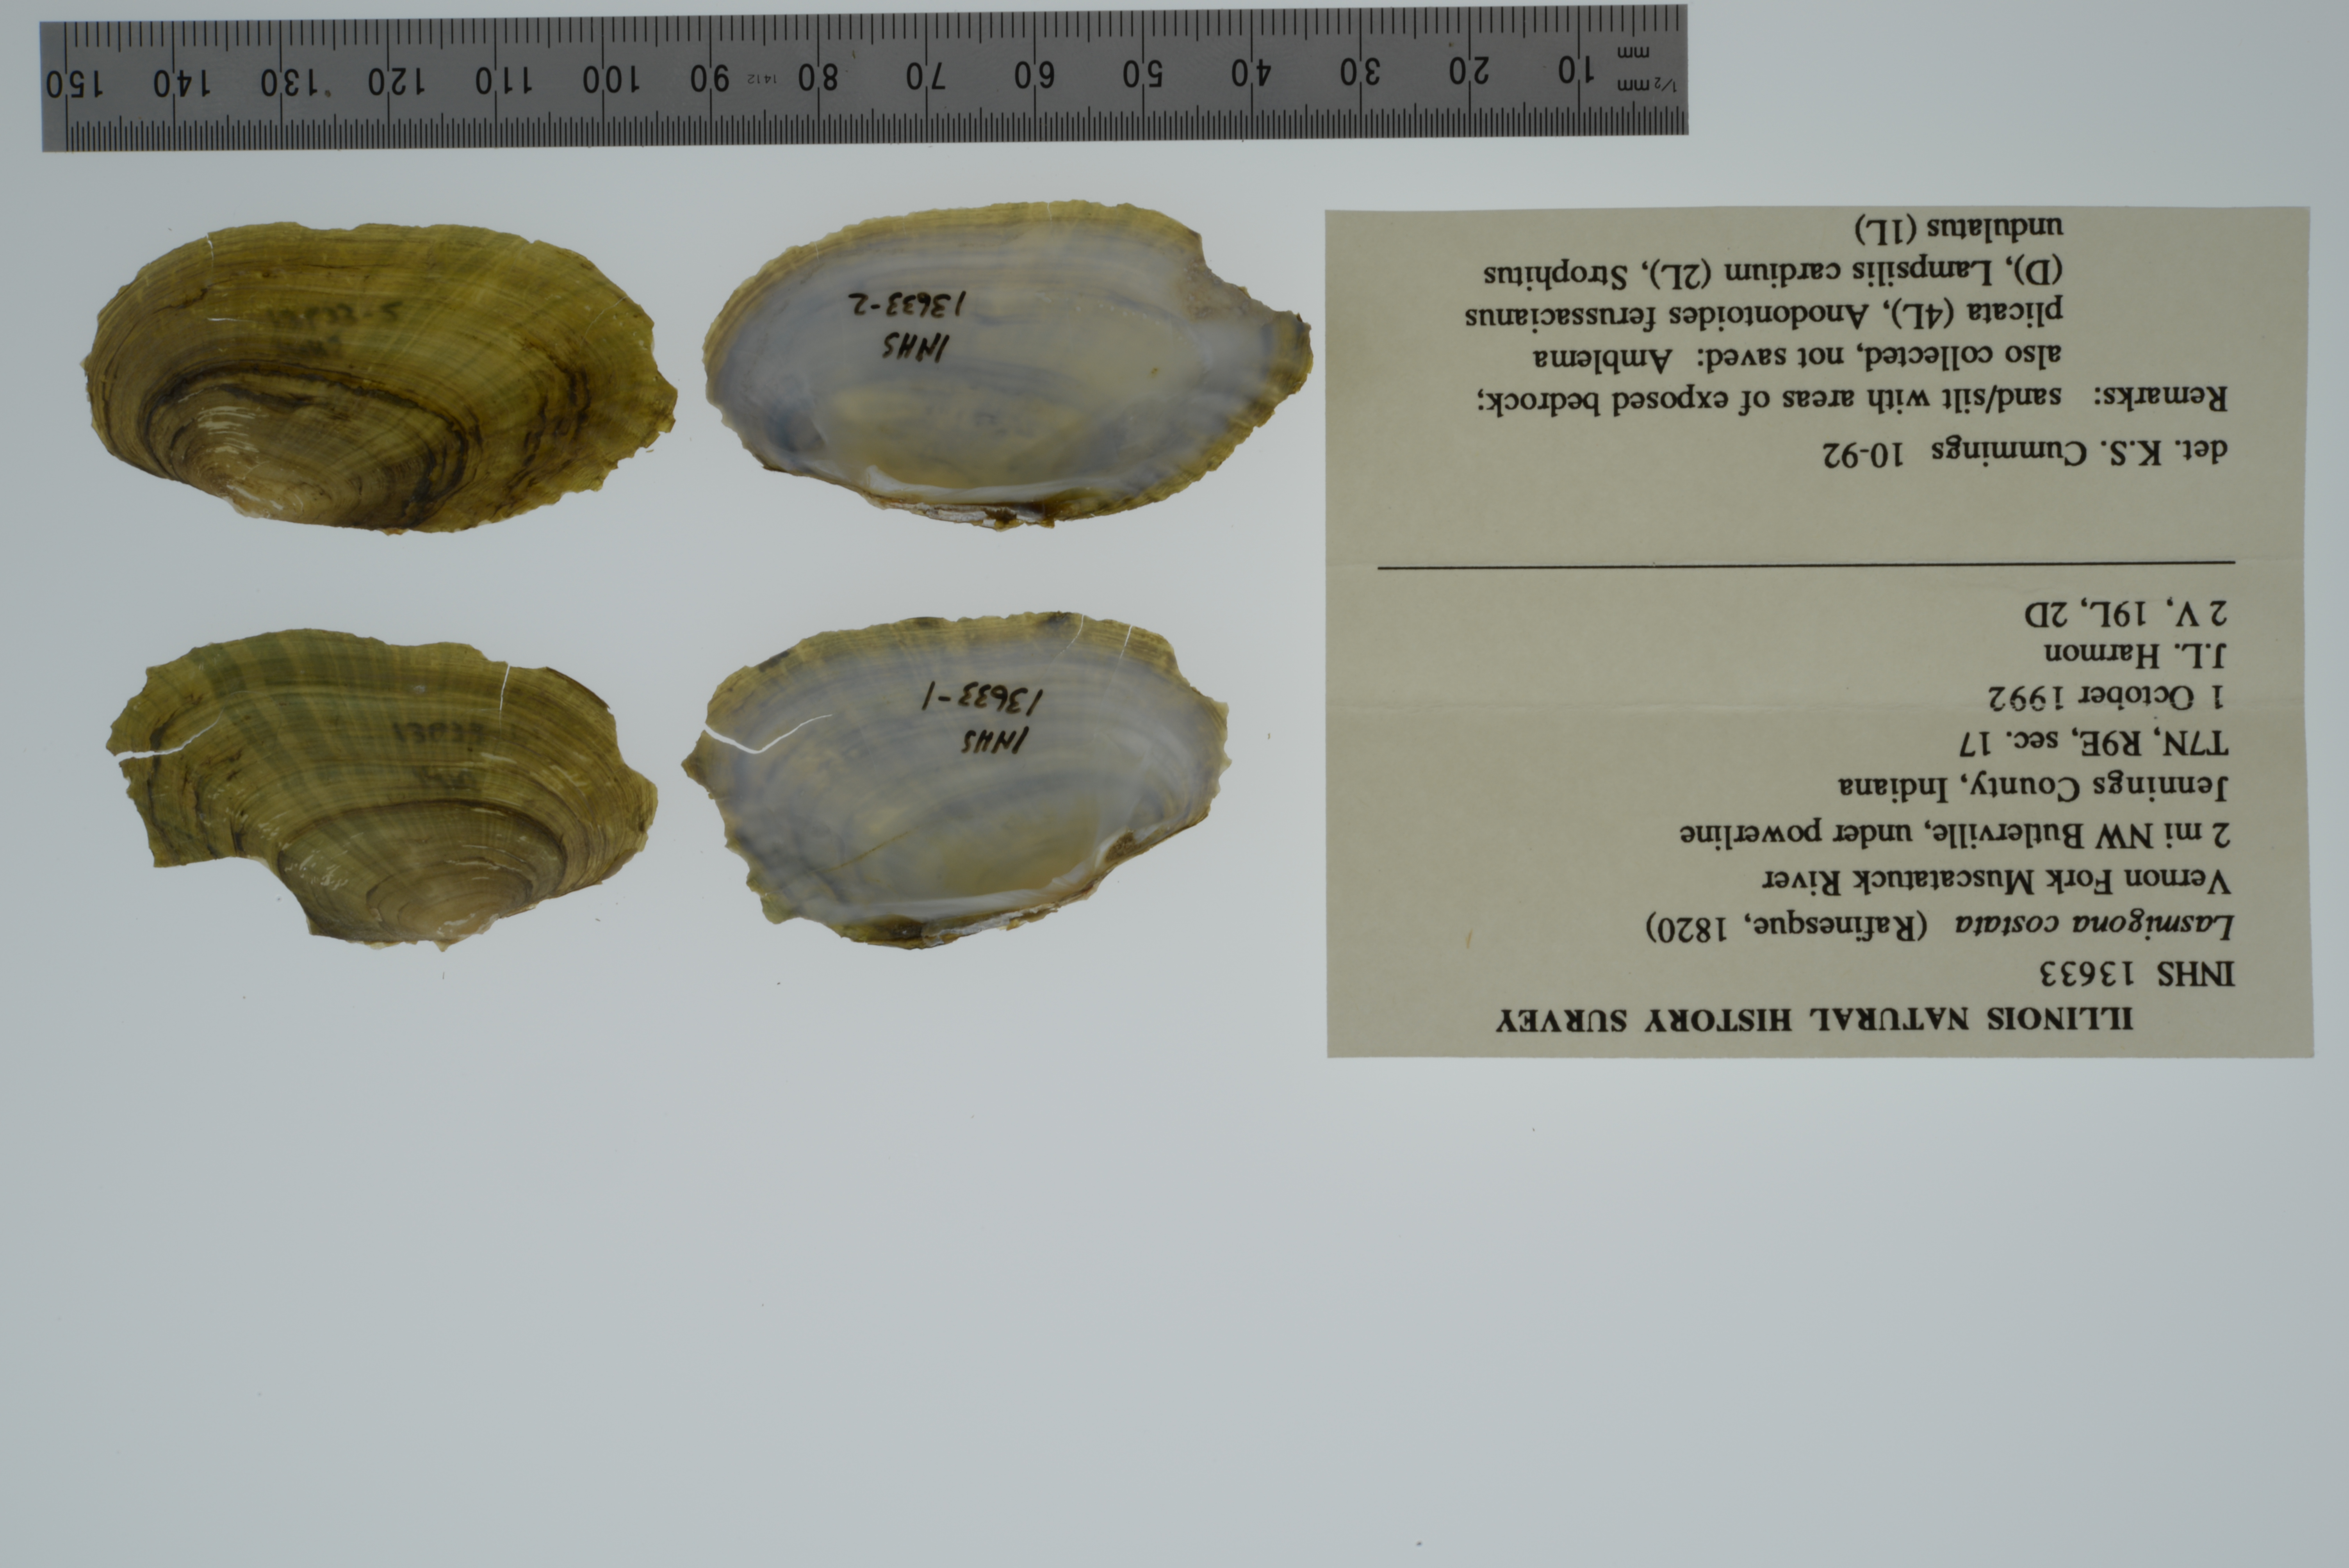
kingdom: Animalia
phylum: Mollusca
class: Bivalvia
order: Unionida
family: Unionidae
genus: Lasmigona
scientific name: Lasmigona costata
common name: Flutedshell
